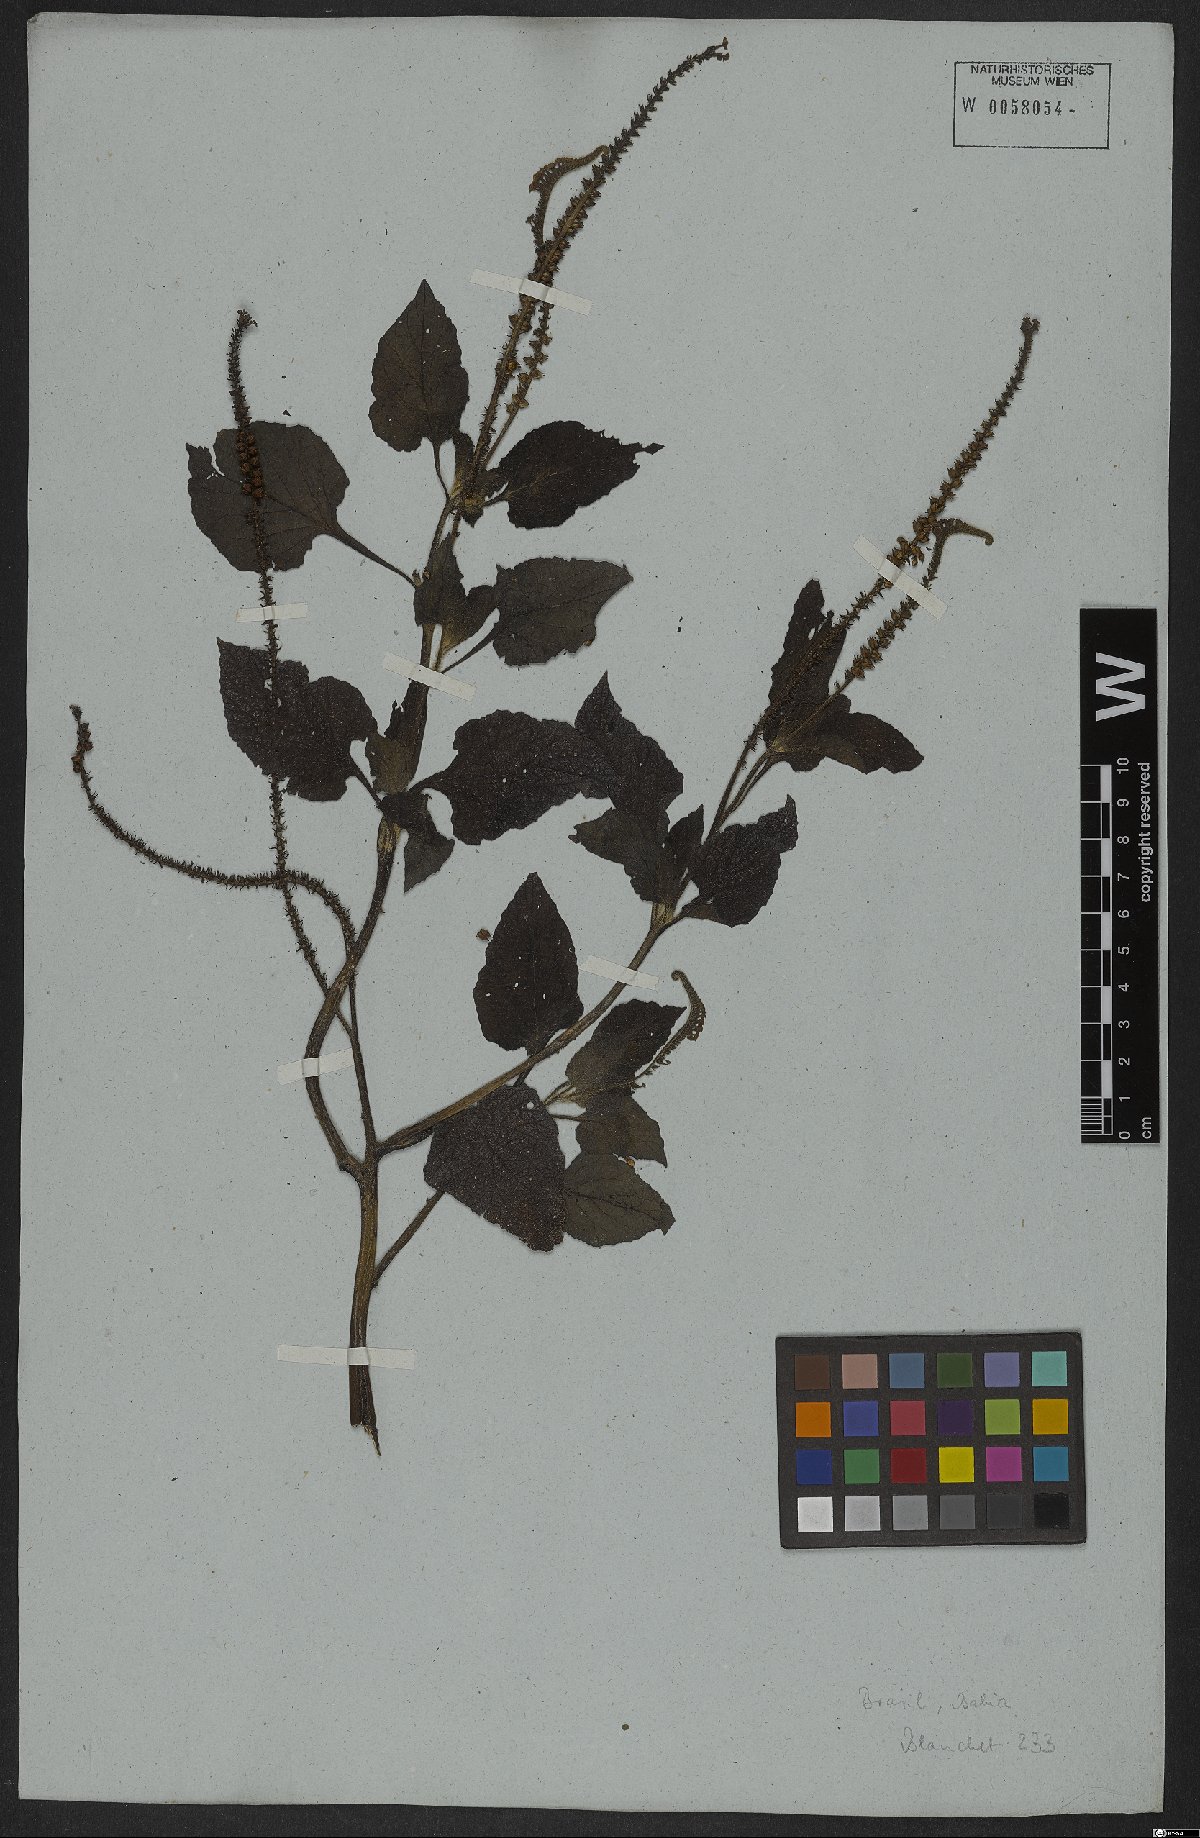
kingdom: Plantae
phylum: Tracheophyta
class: Magnoliopsida
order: Boraginales
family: Heliotropiaceae
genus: Heliotropium
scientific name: Heliotropium indicum
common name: Indian heliotrope
